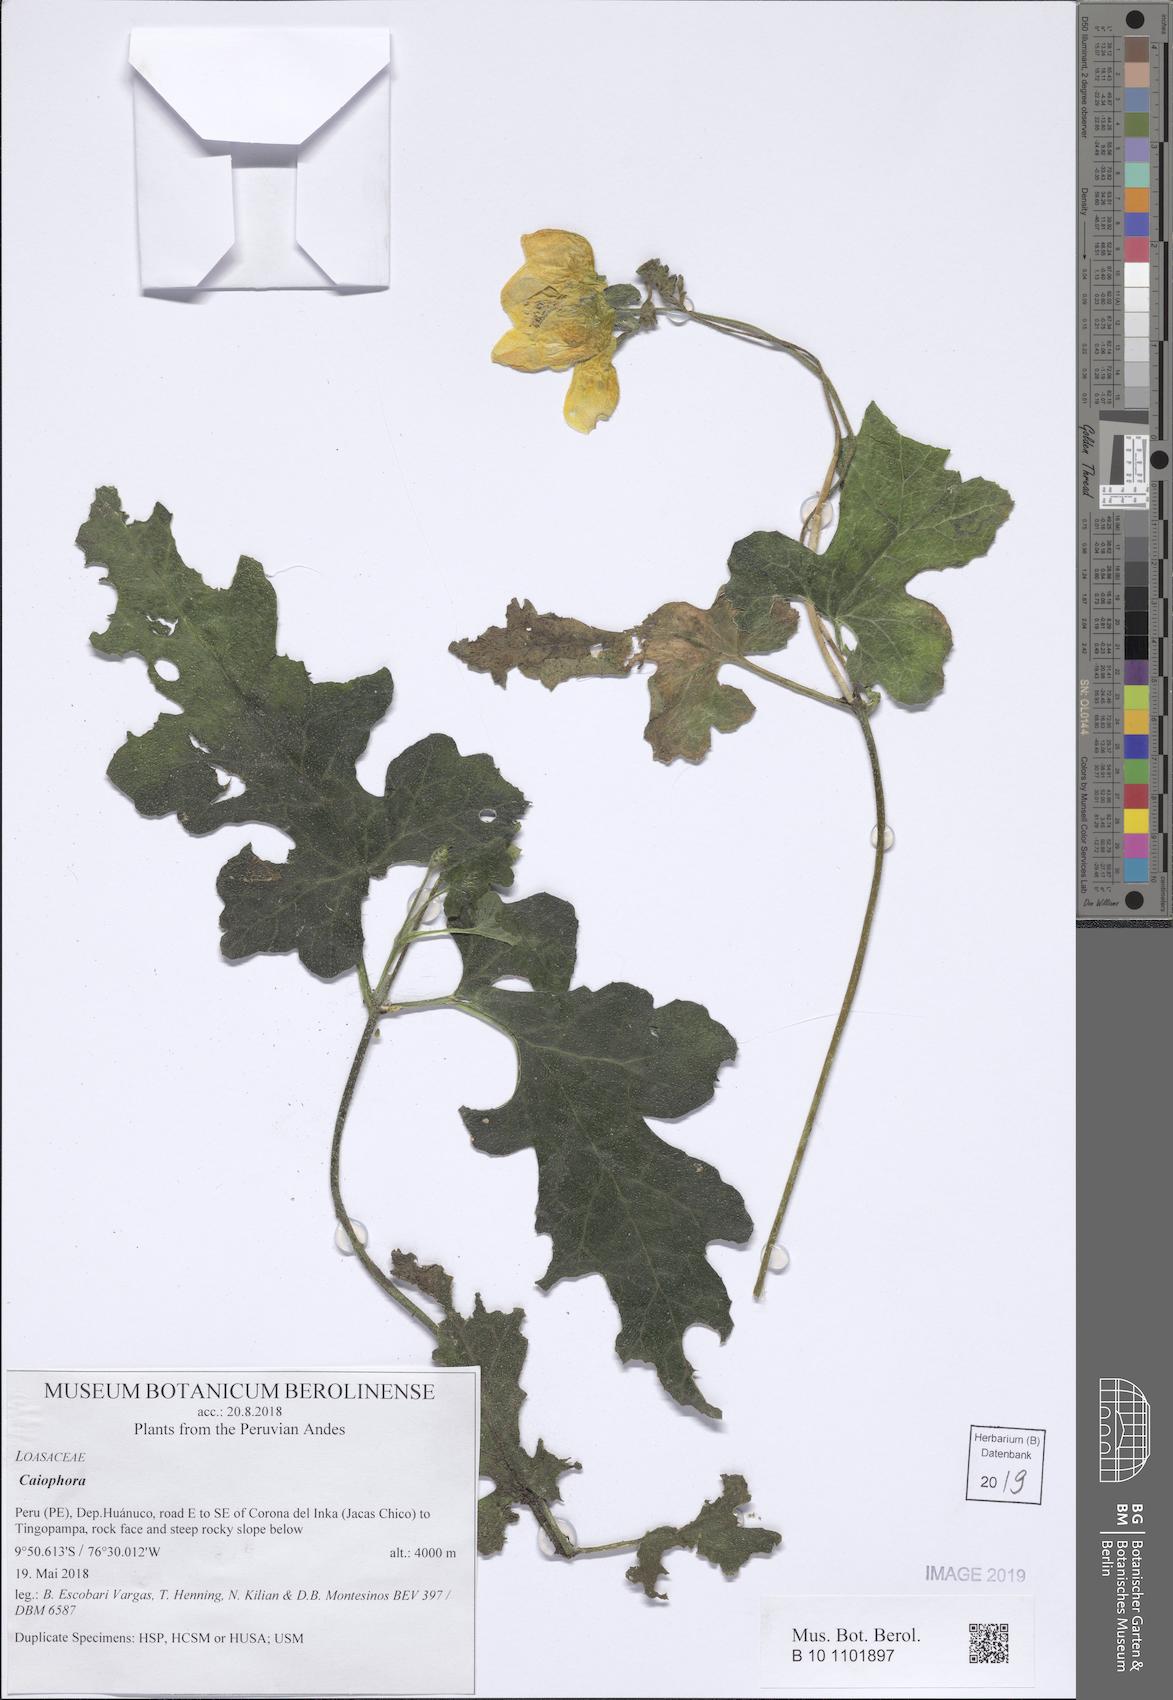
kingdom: Plantae
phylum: Tracheophyta
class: Magnoliopsida
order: Cornales
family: Loasaceae
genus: Caiophora
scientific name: Caiophora cirsiifolia
